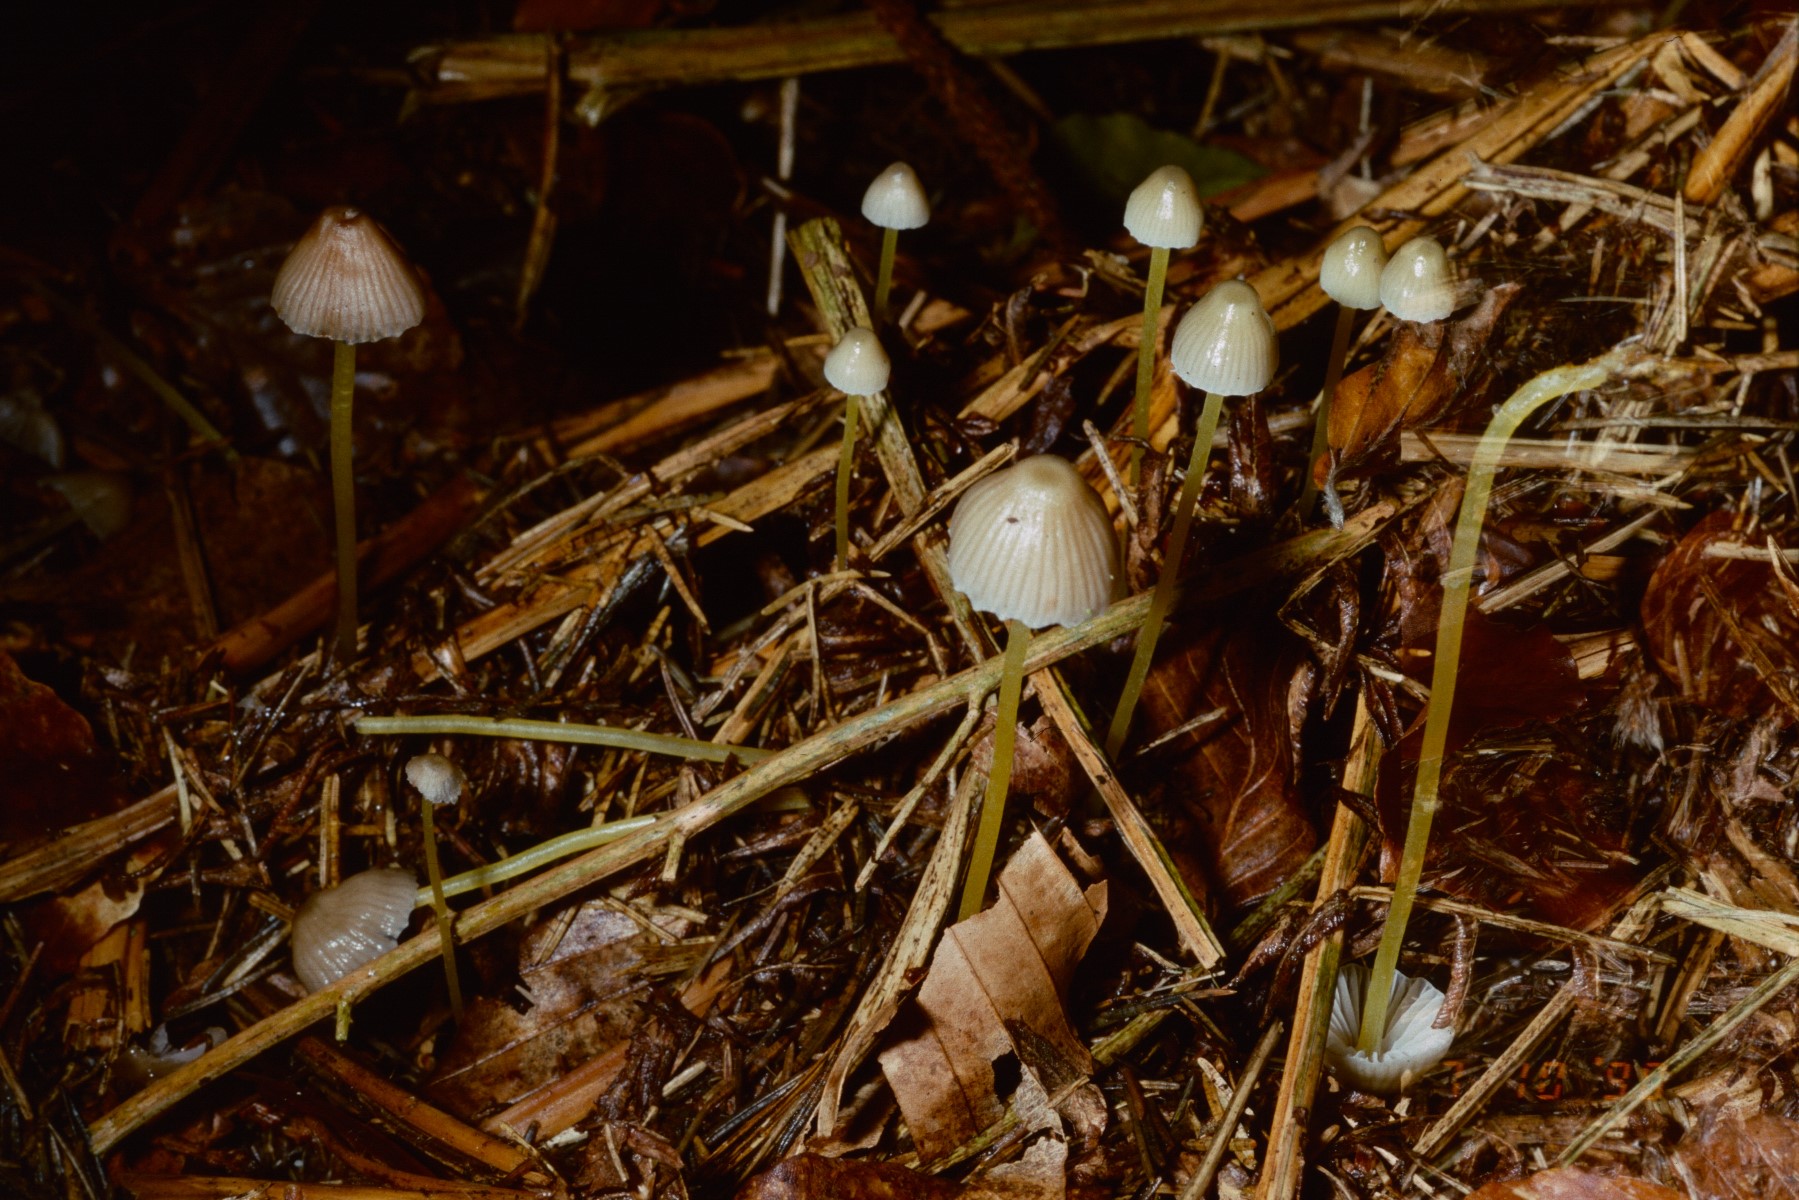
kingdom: Fungi
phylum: Basidiomycota
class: Agaricomycetes
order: Agaricales
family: Mycenaceae
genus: Mycena
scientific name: Mycena epipterygia
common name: gulstokket huesvamp
